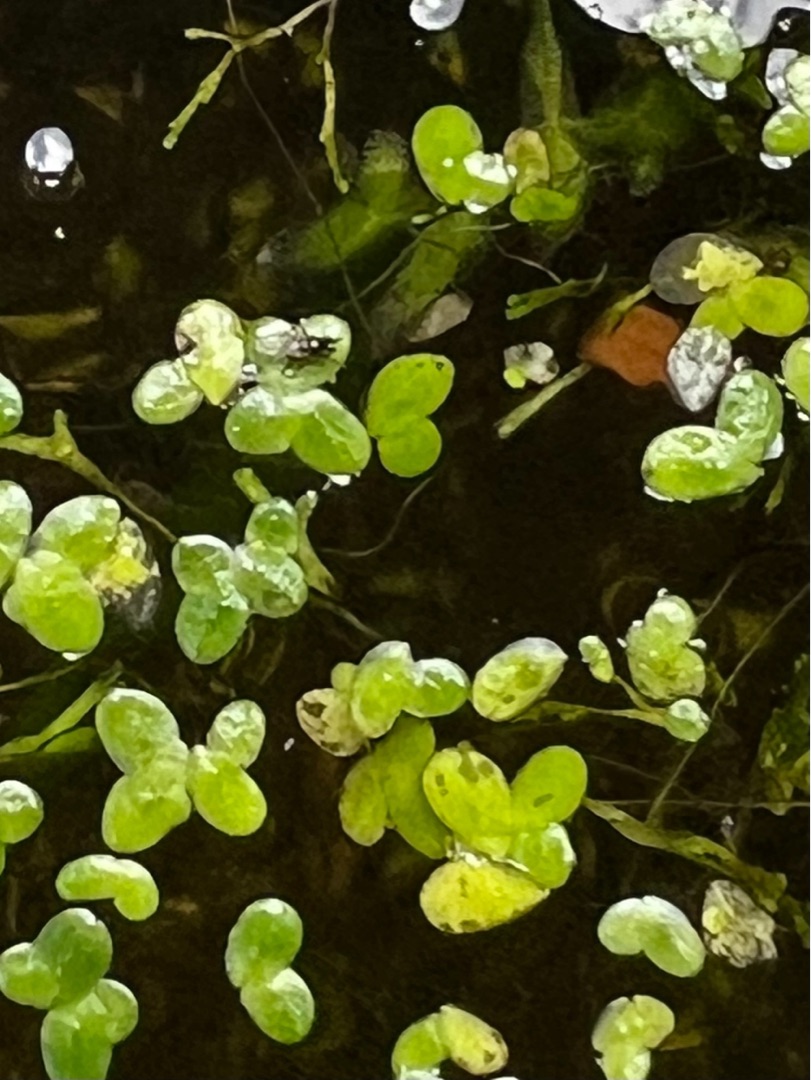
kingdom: Plantae
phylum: Tracheophyta
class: Liliopsida
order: Alismatales
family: Araceae
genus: Lemna
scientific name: Lemna minor
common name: Liden andemad
